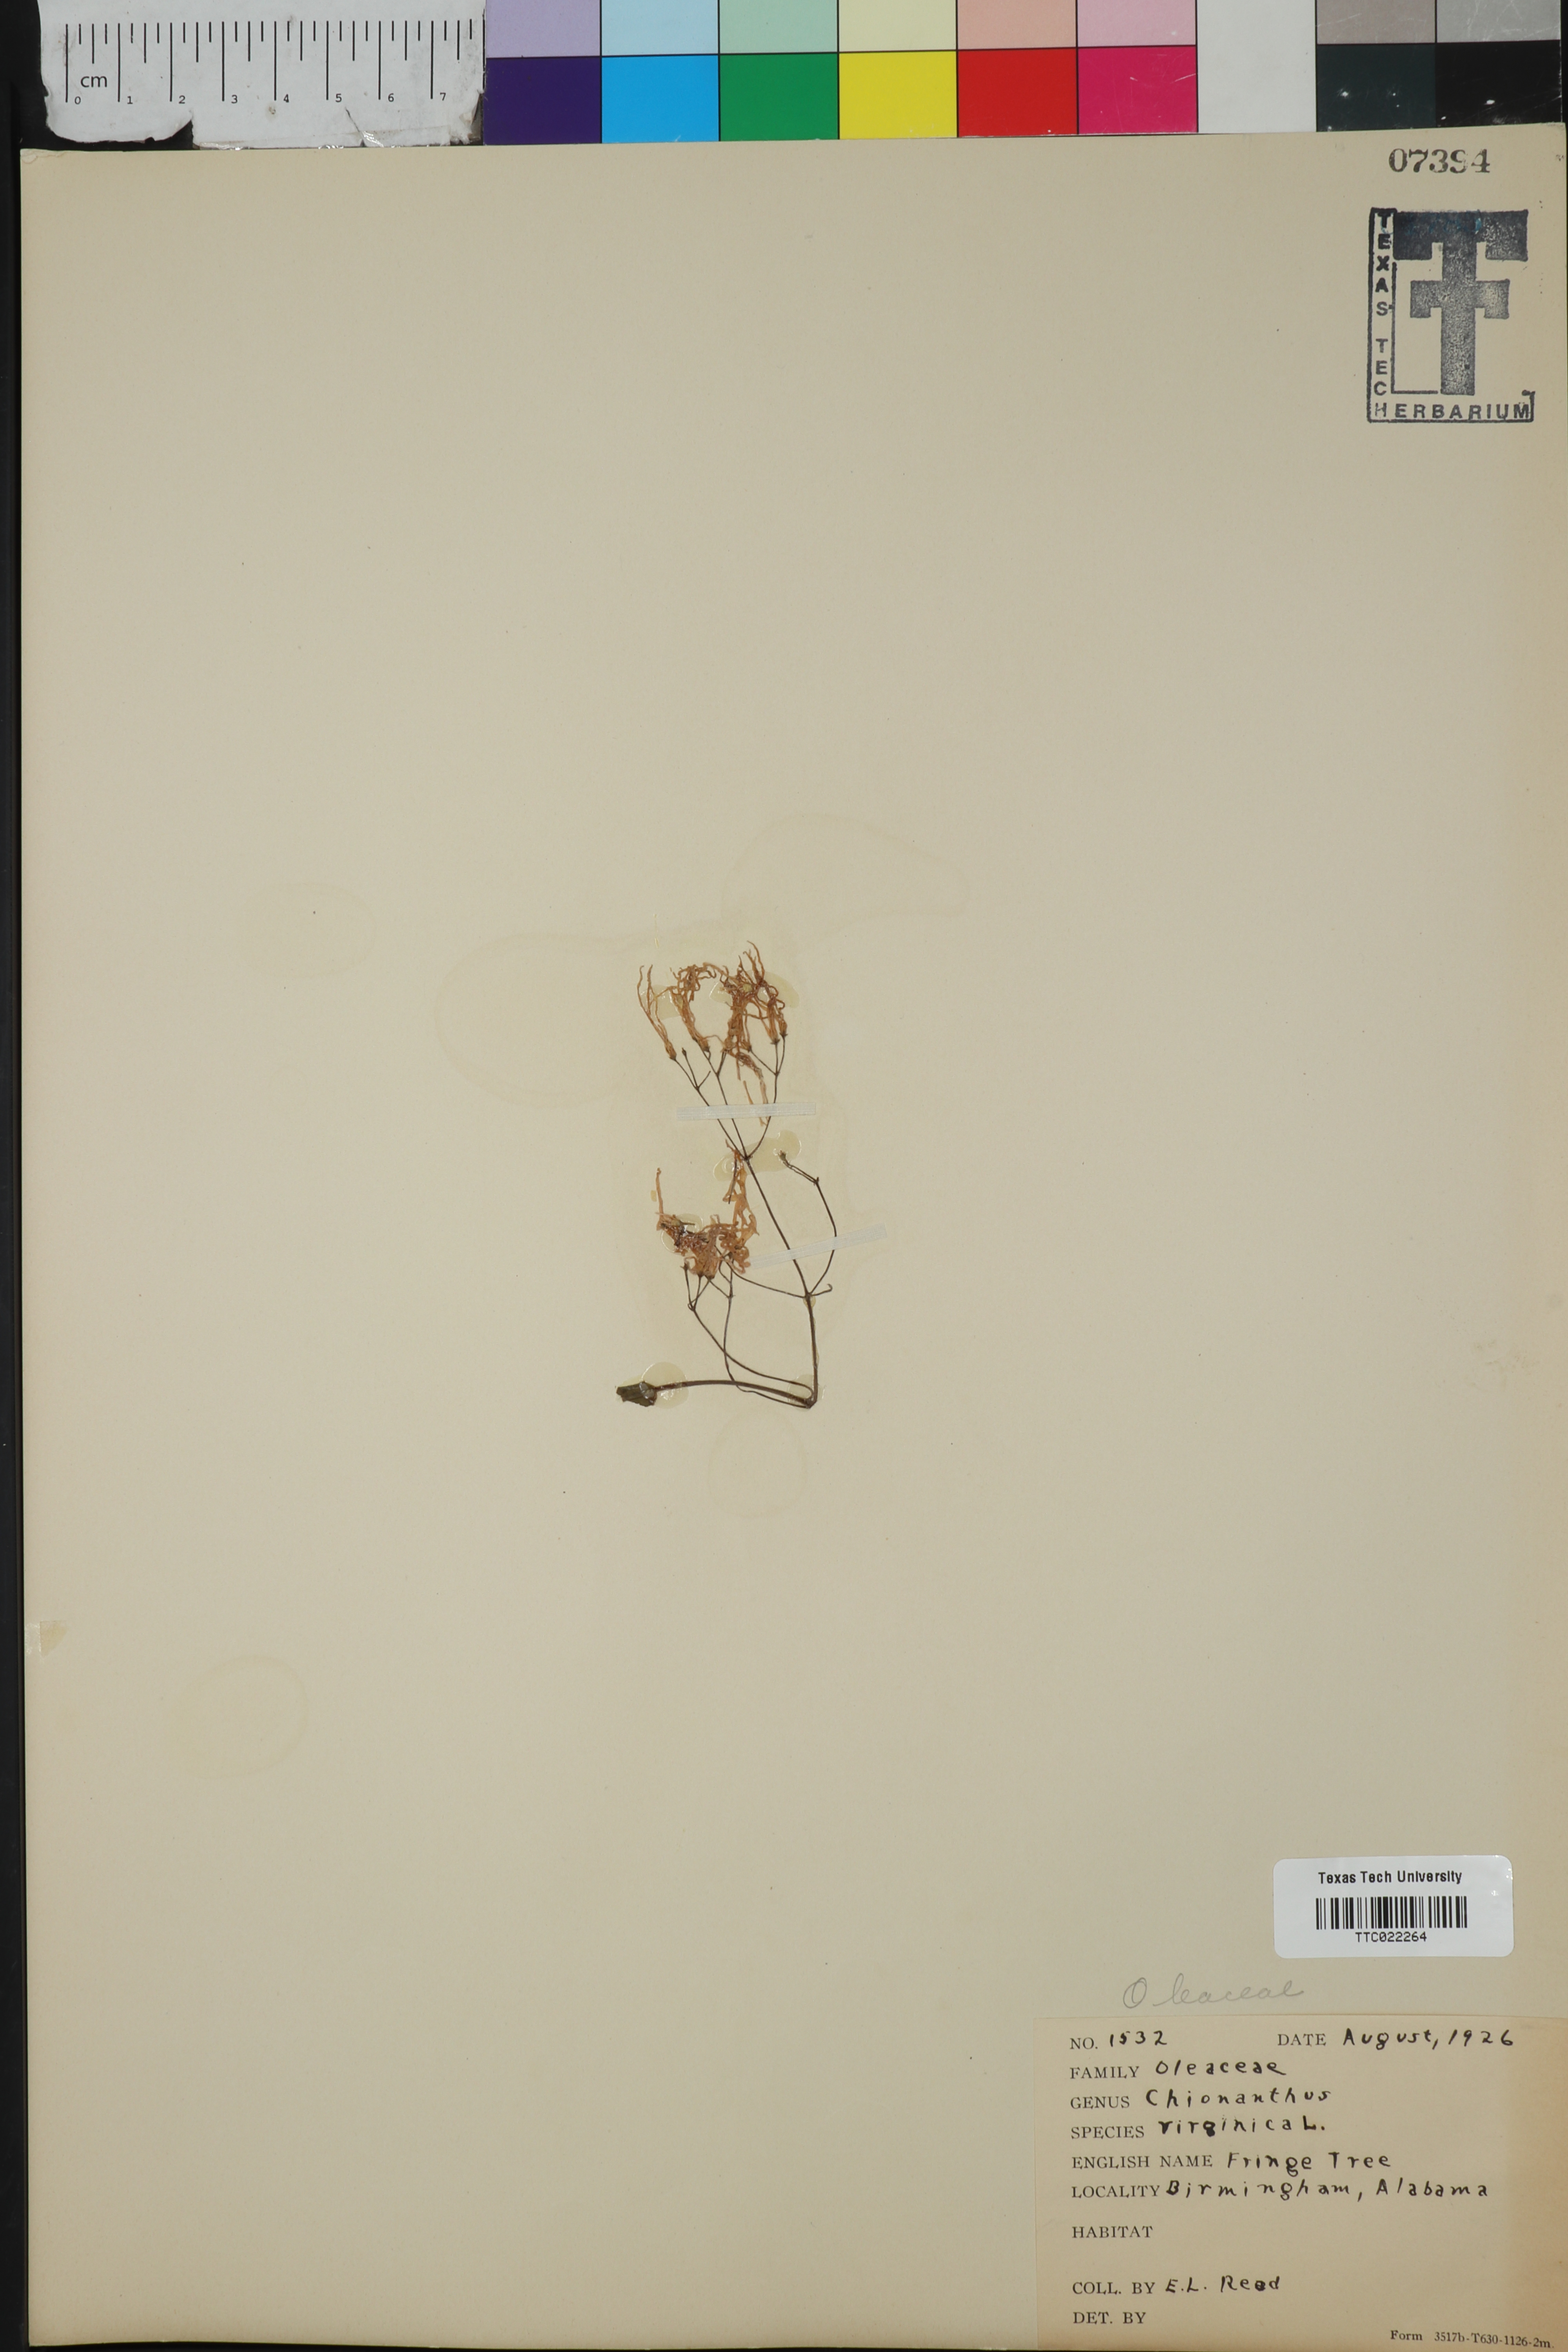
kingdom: Plantae
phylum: Tracheophyta
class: Magnoliopsida
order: Lamiales
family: Oleaceae
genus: Chionanthus
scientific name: Chionanthus virginicus
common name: American fringetree
